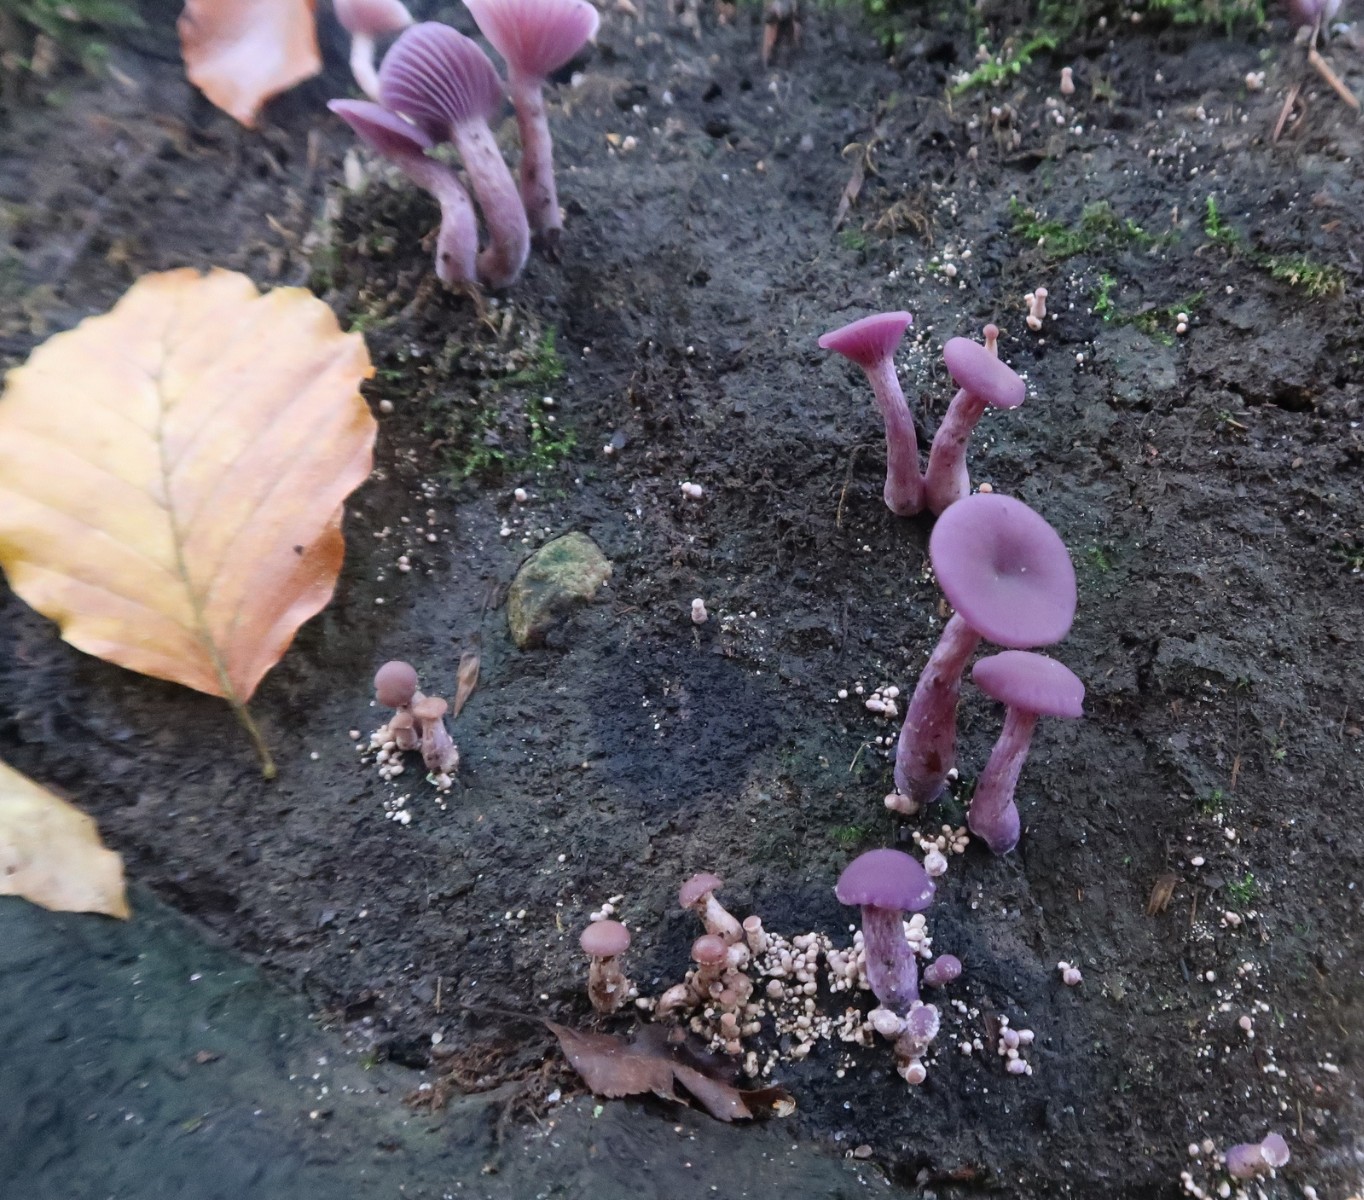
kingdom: Fungi
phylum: Basidiomycota
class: Agaricomycetes
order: Agaricales
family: Hydnangiaceae
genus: Laccaria
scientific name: Laccaria amethystina
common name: violet ametysthat
